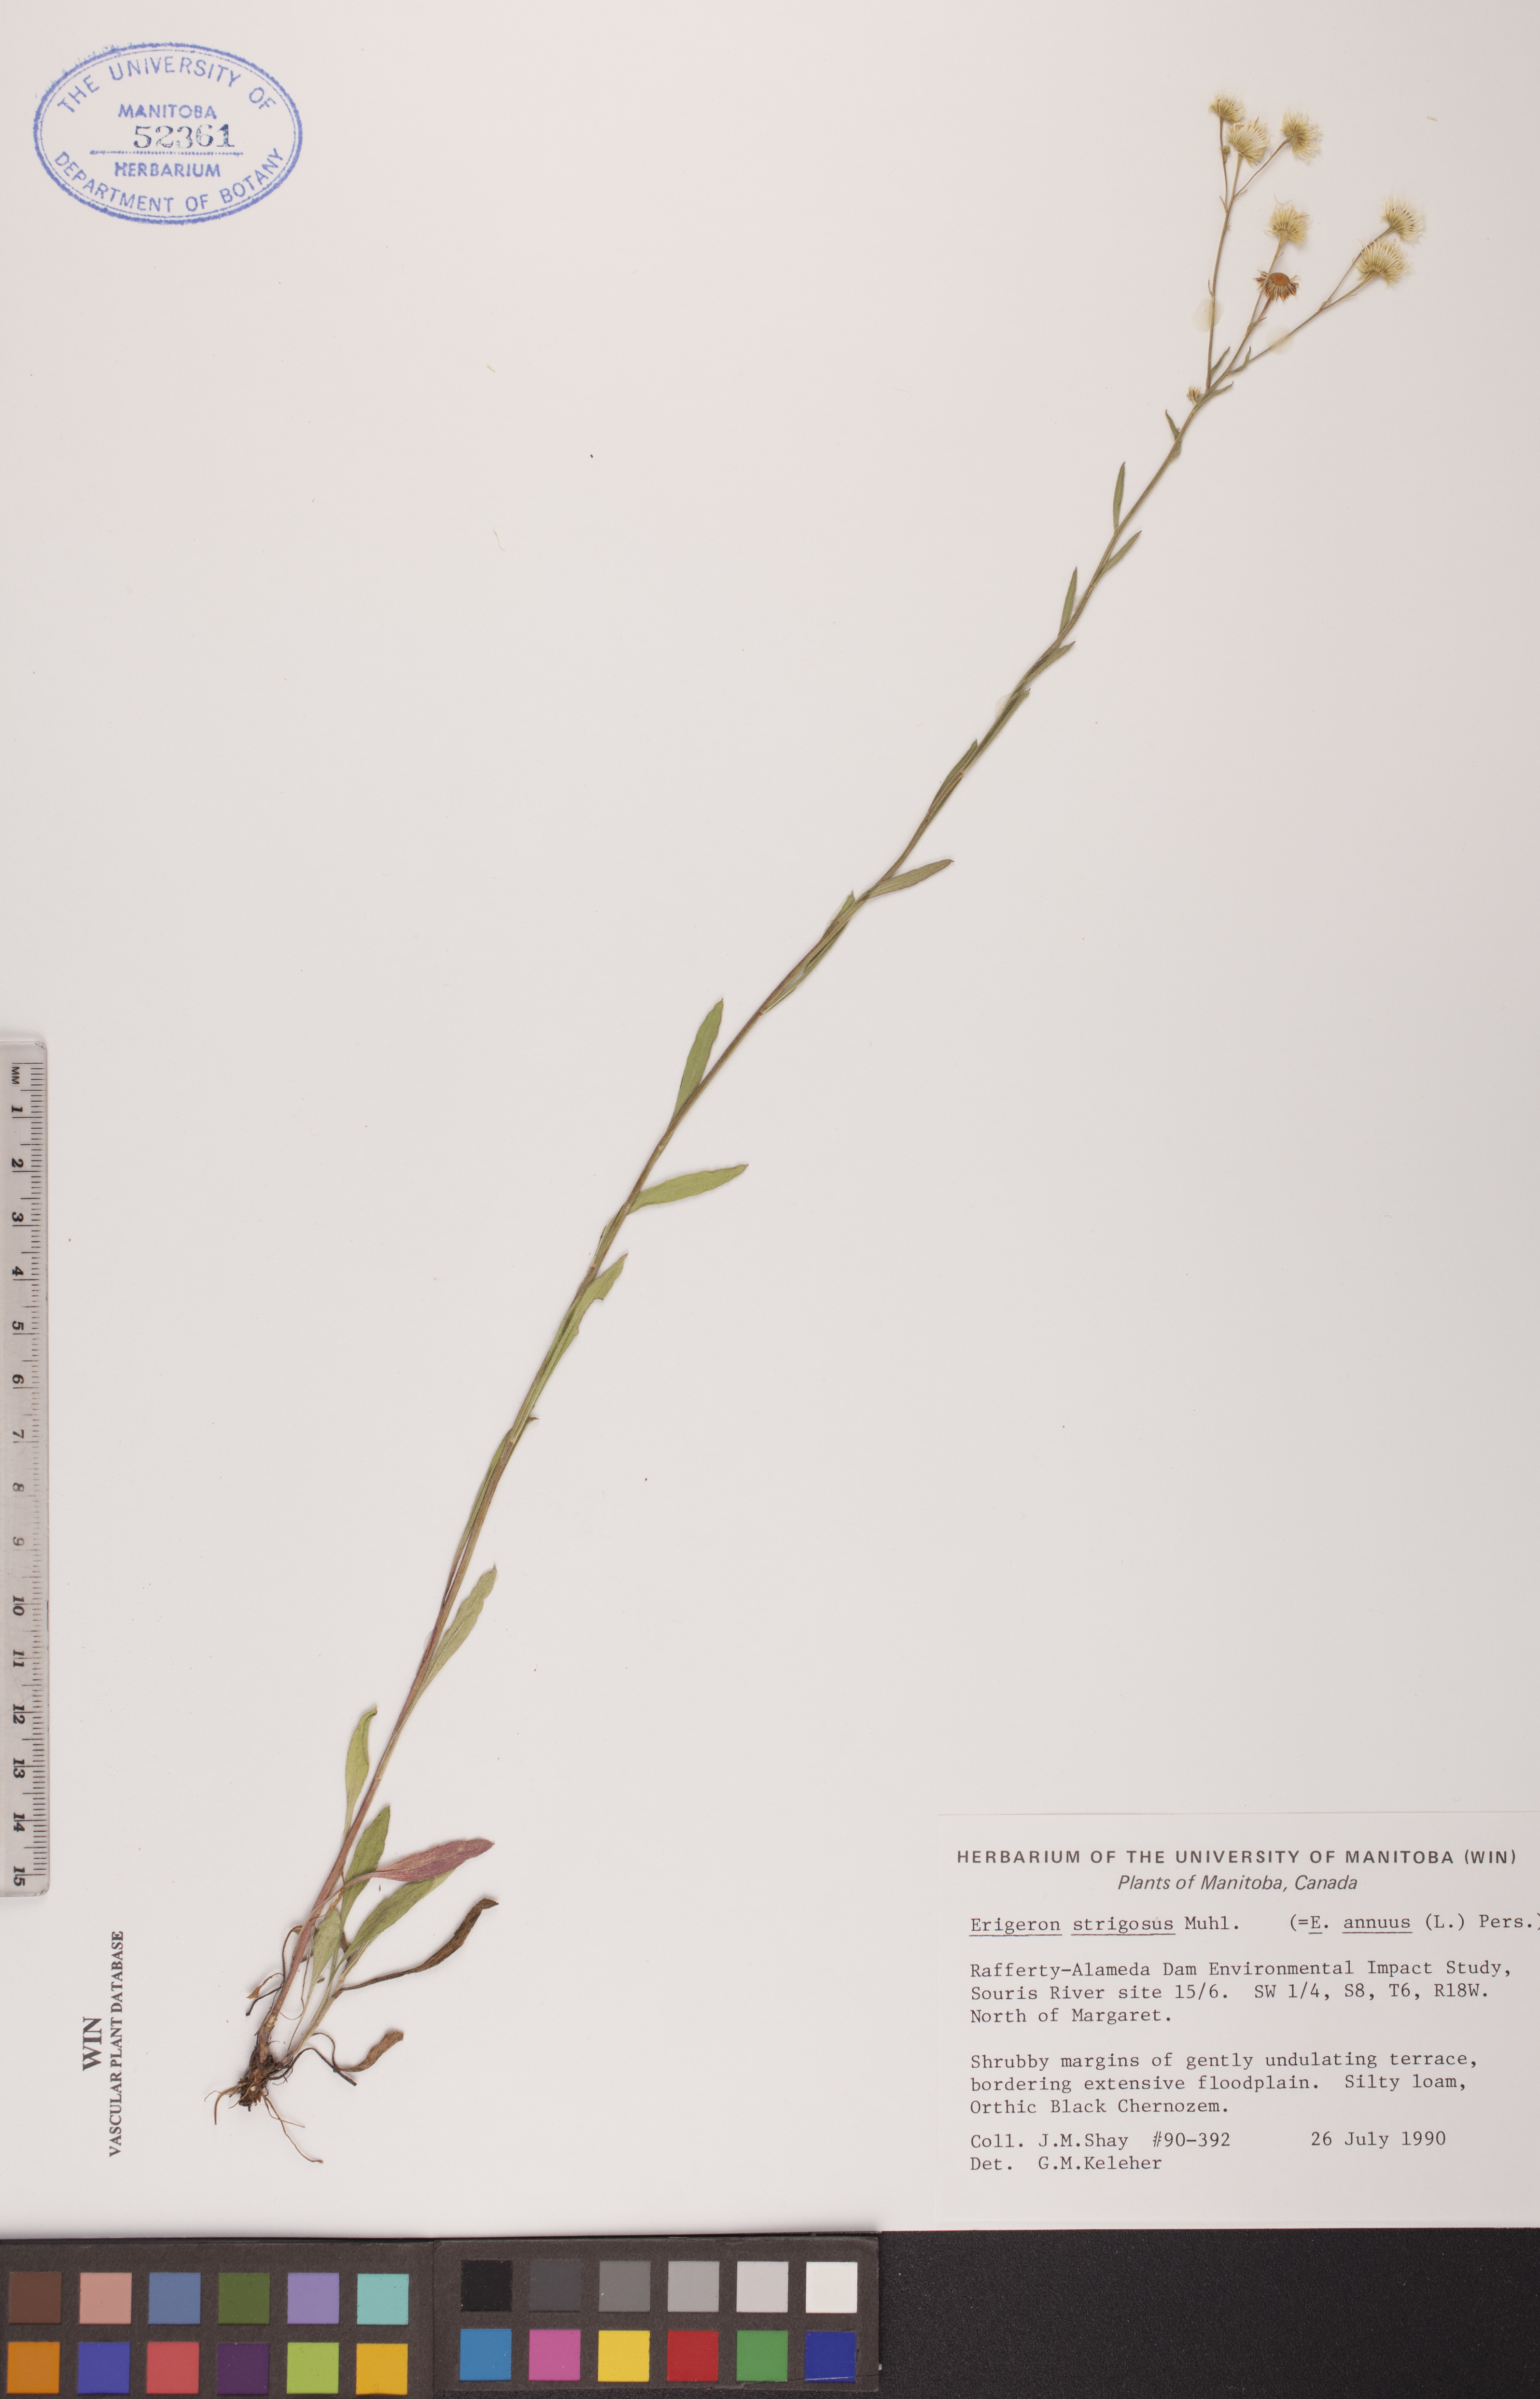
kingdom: Plantae
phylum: Tracheophyta
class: Magnoliopsida
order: Asterales
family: Asteraceae
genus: Erigeron
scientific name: Erigeron strigosus
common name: Common eastern fleabane
